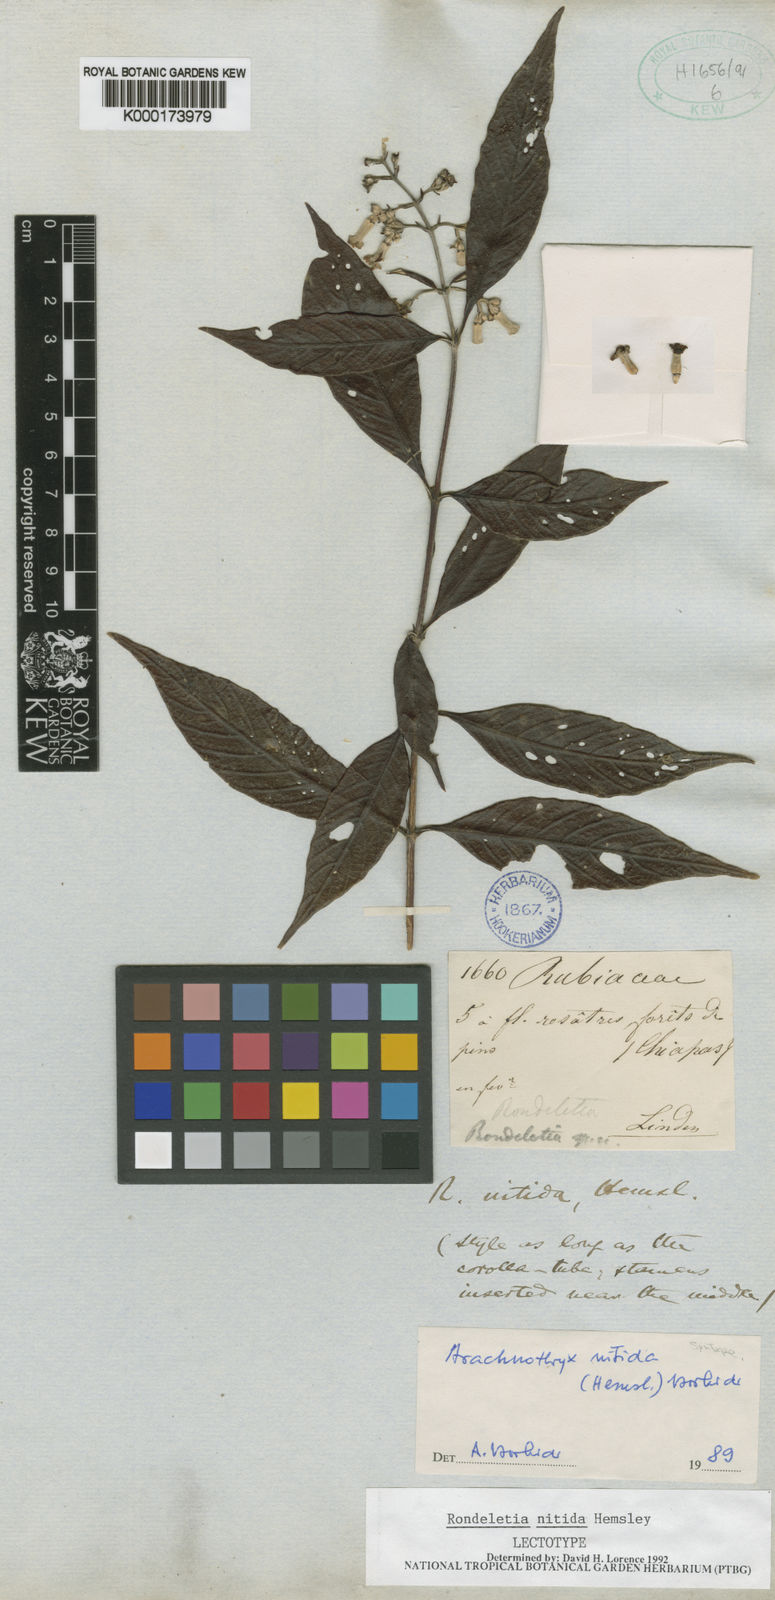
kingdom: Plantae
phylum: Tracheophyta
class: Magnoliopsida
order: Gentianales
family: Rubiaceae
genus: Arachnothryx
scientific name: Arachnothryx nitida
